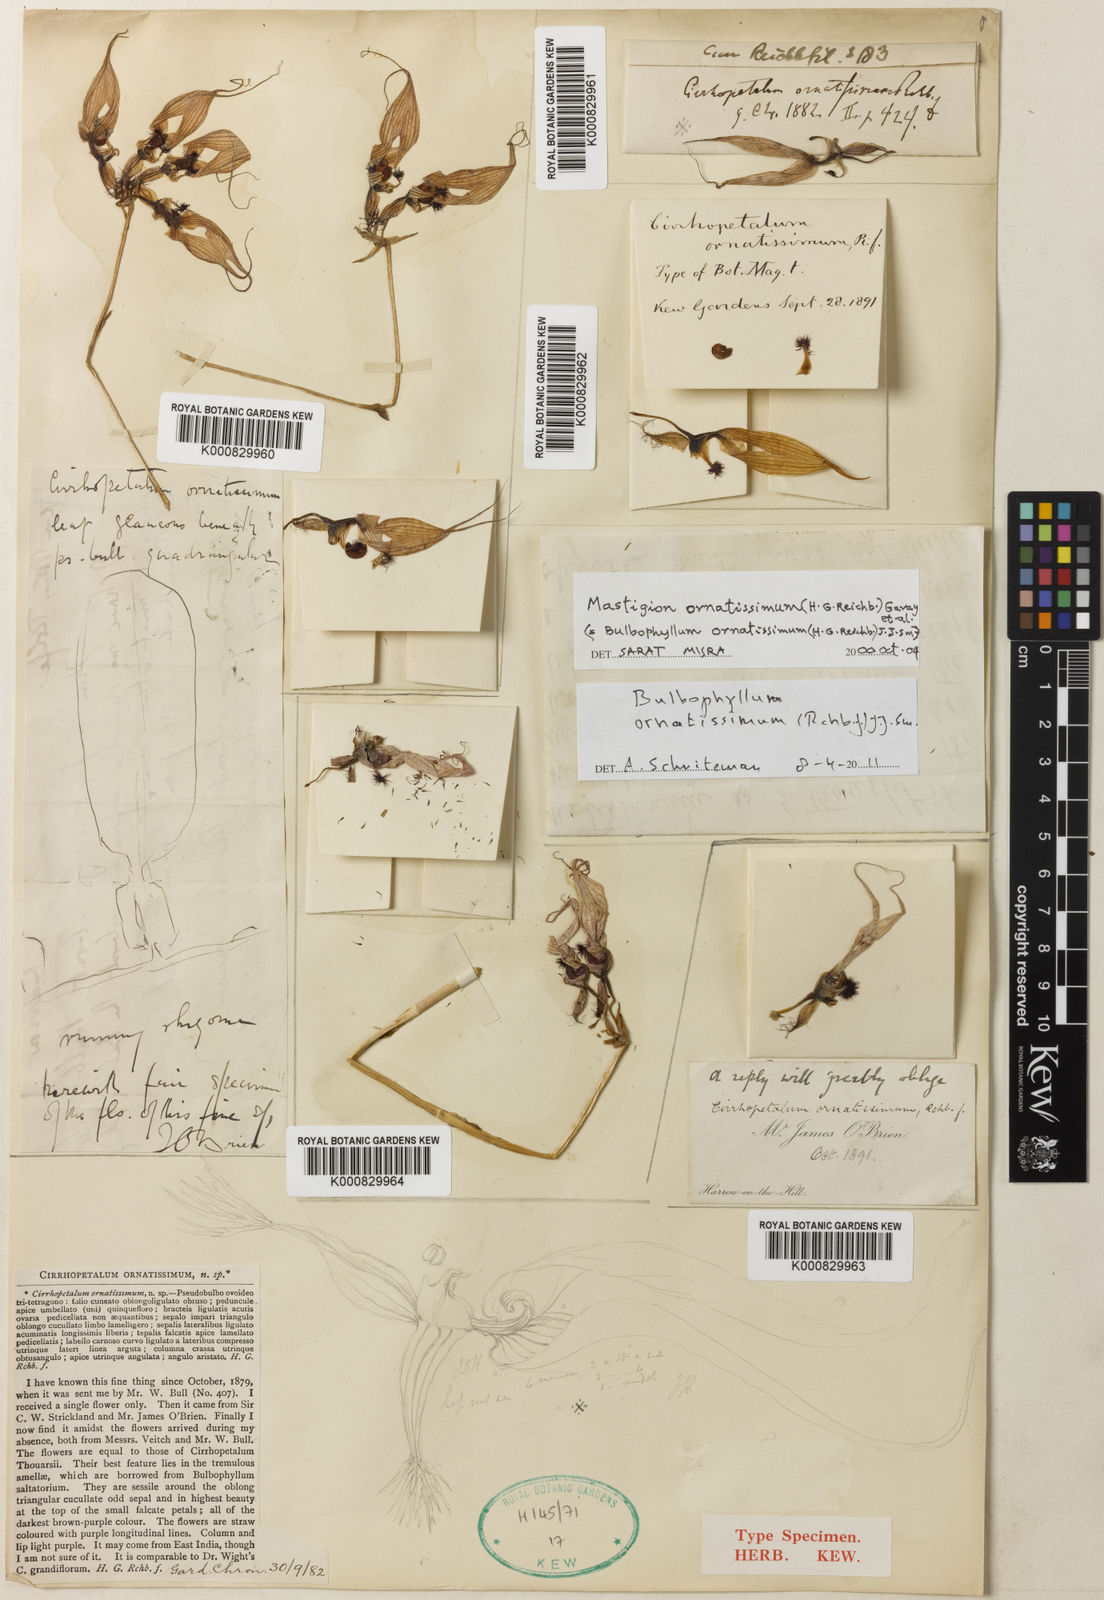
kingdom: Plantae
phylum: Tracheophyta
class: Liliopsida
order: Asparagales
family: Orchidaceae
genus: Bulbophyllum
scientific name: Bulbophyllum ornatissimum
